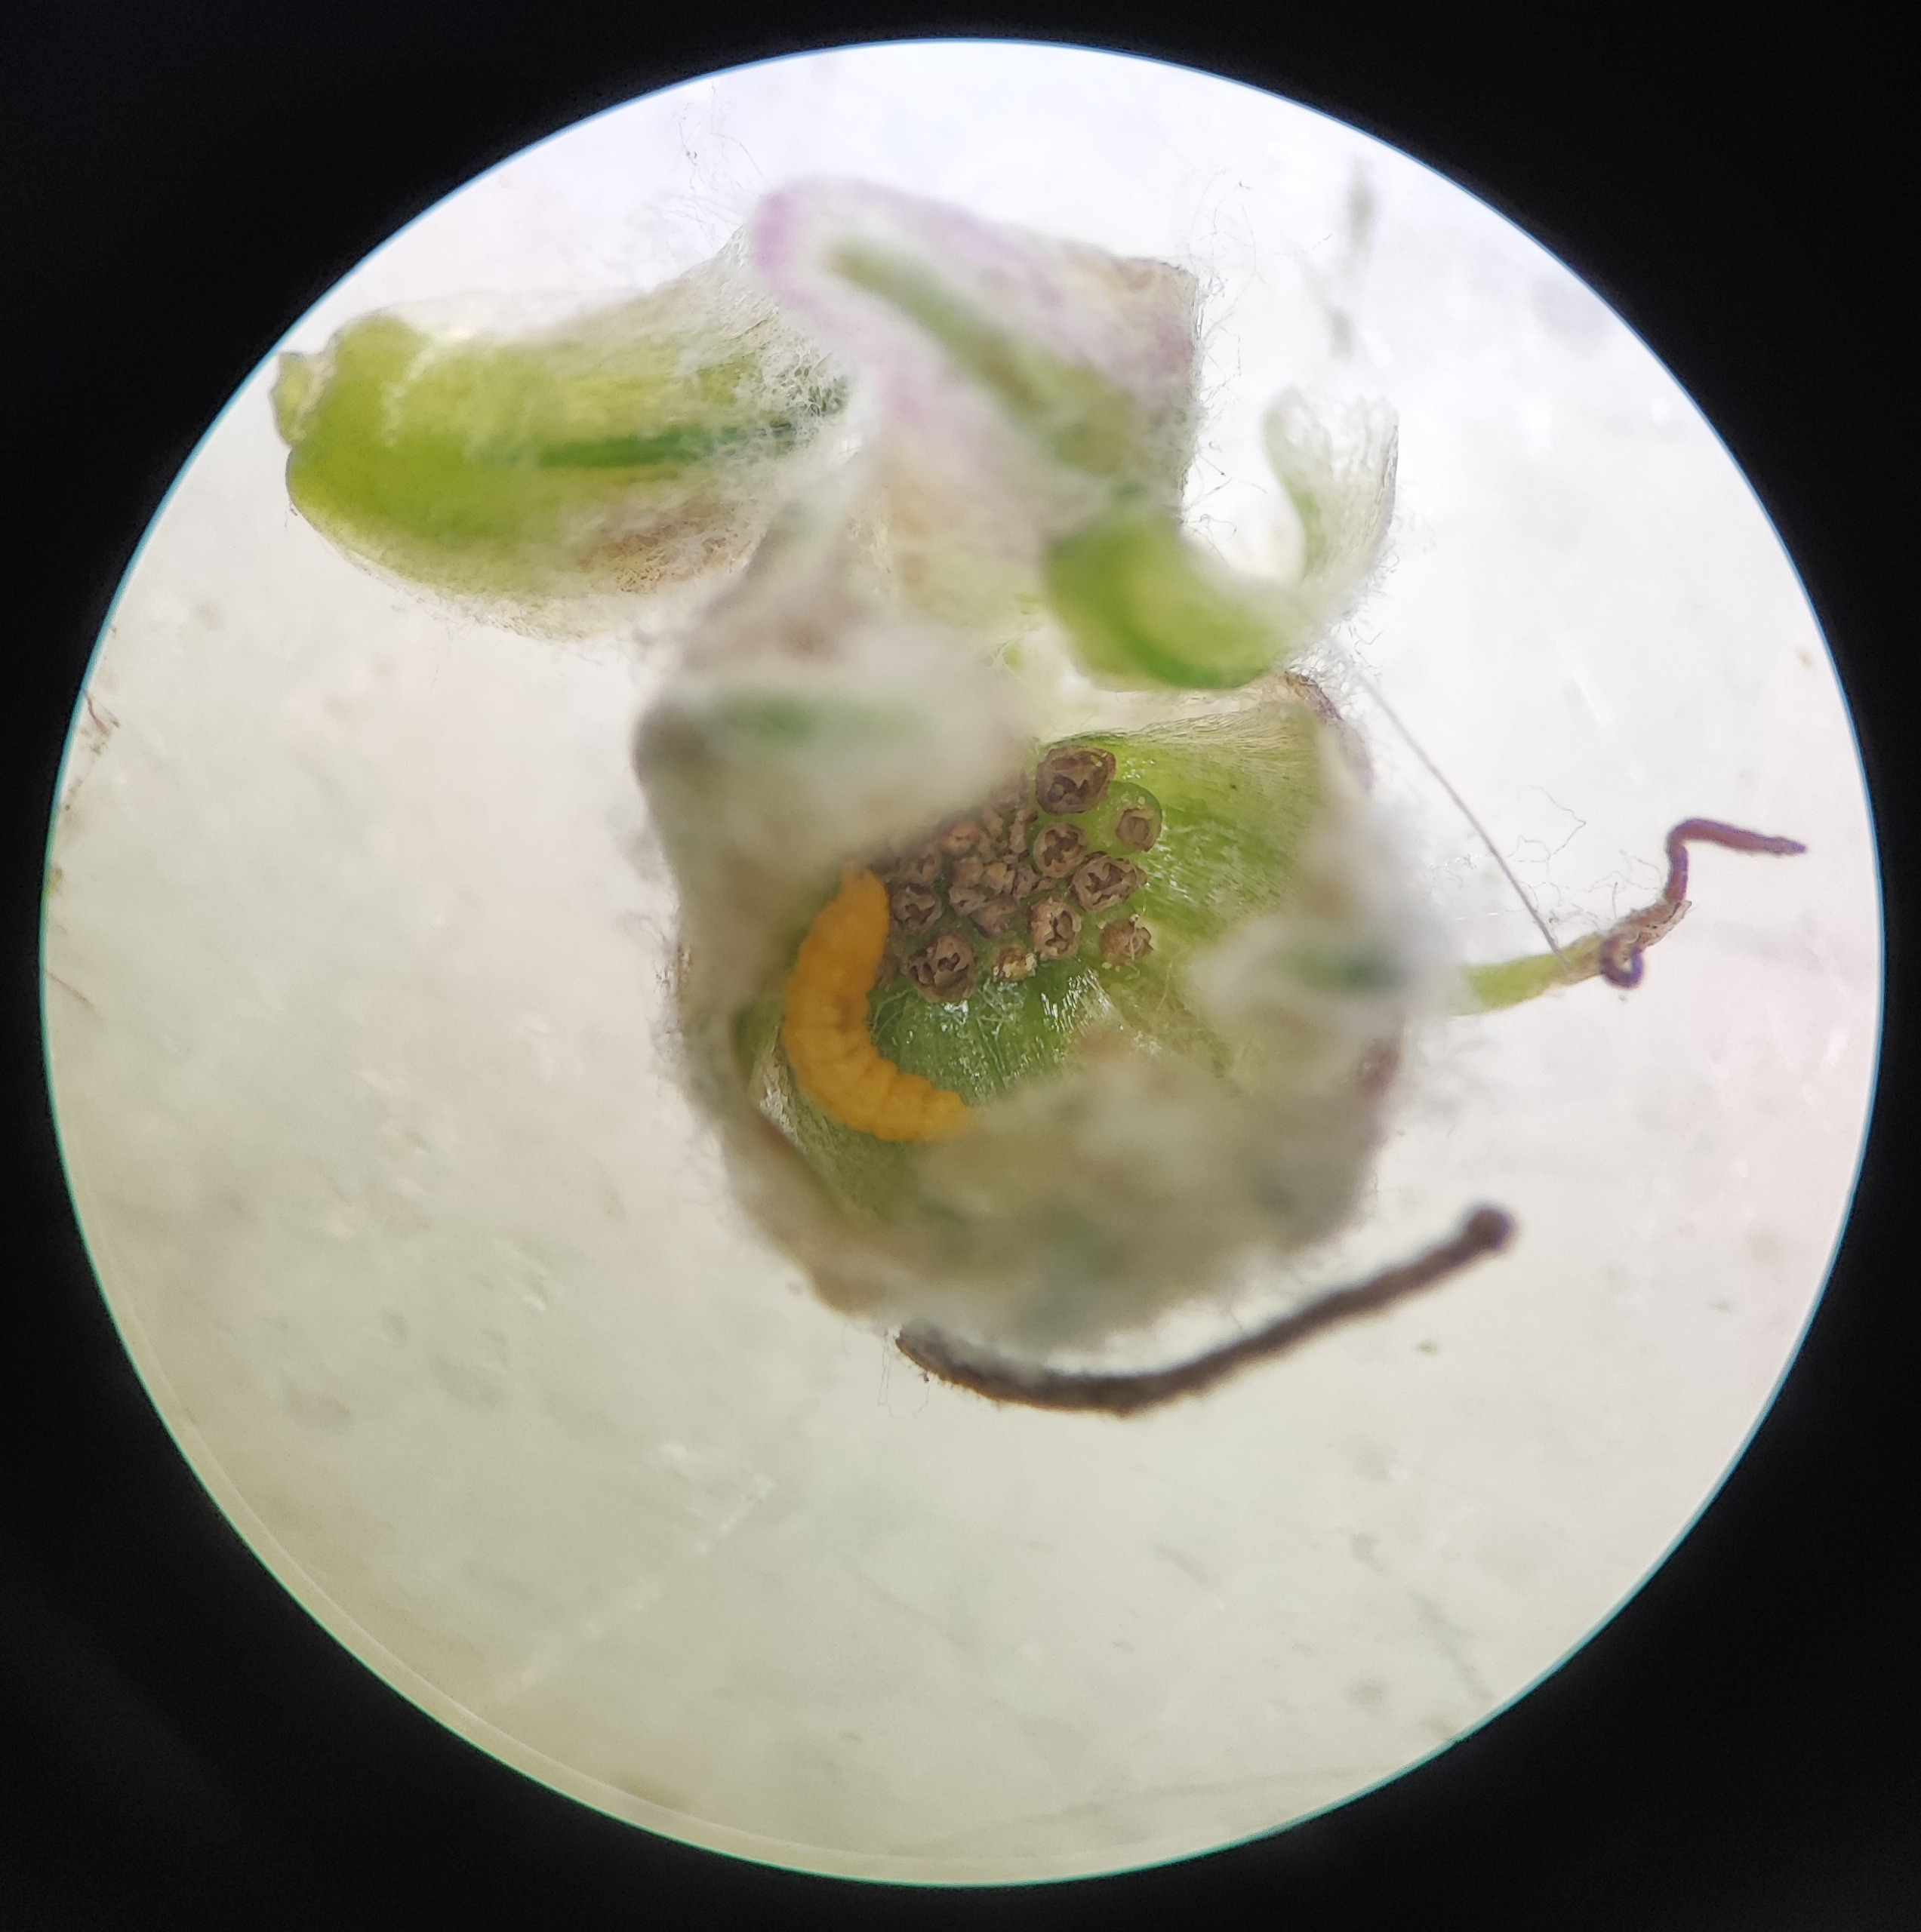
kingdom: Animalia
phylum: Arthropoda
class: Insecta
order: Diptera
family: Cecidomyiidae
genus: Ametrodiplosis
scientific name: Ametrodiplosis rudimentalis
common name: Bynkekurvgalmyg
